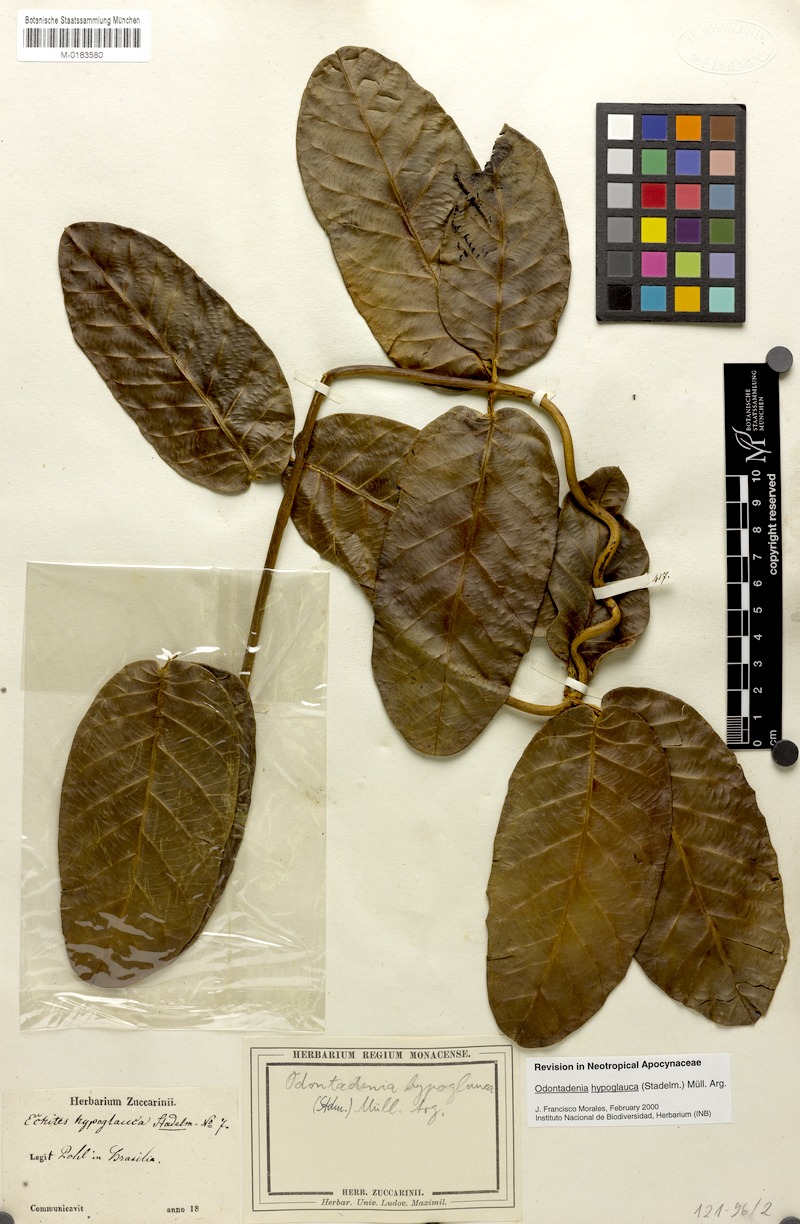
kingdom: Plantae
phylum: Tracheophyta
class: Magnoliopsida
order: Gentianales
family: Apocynaceae
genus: Odontadenia
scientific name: Odontadenia hypoglauca
